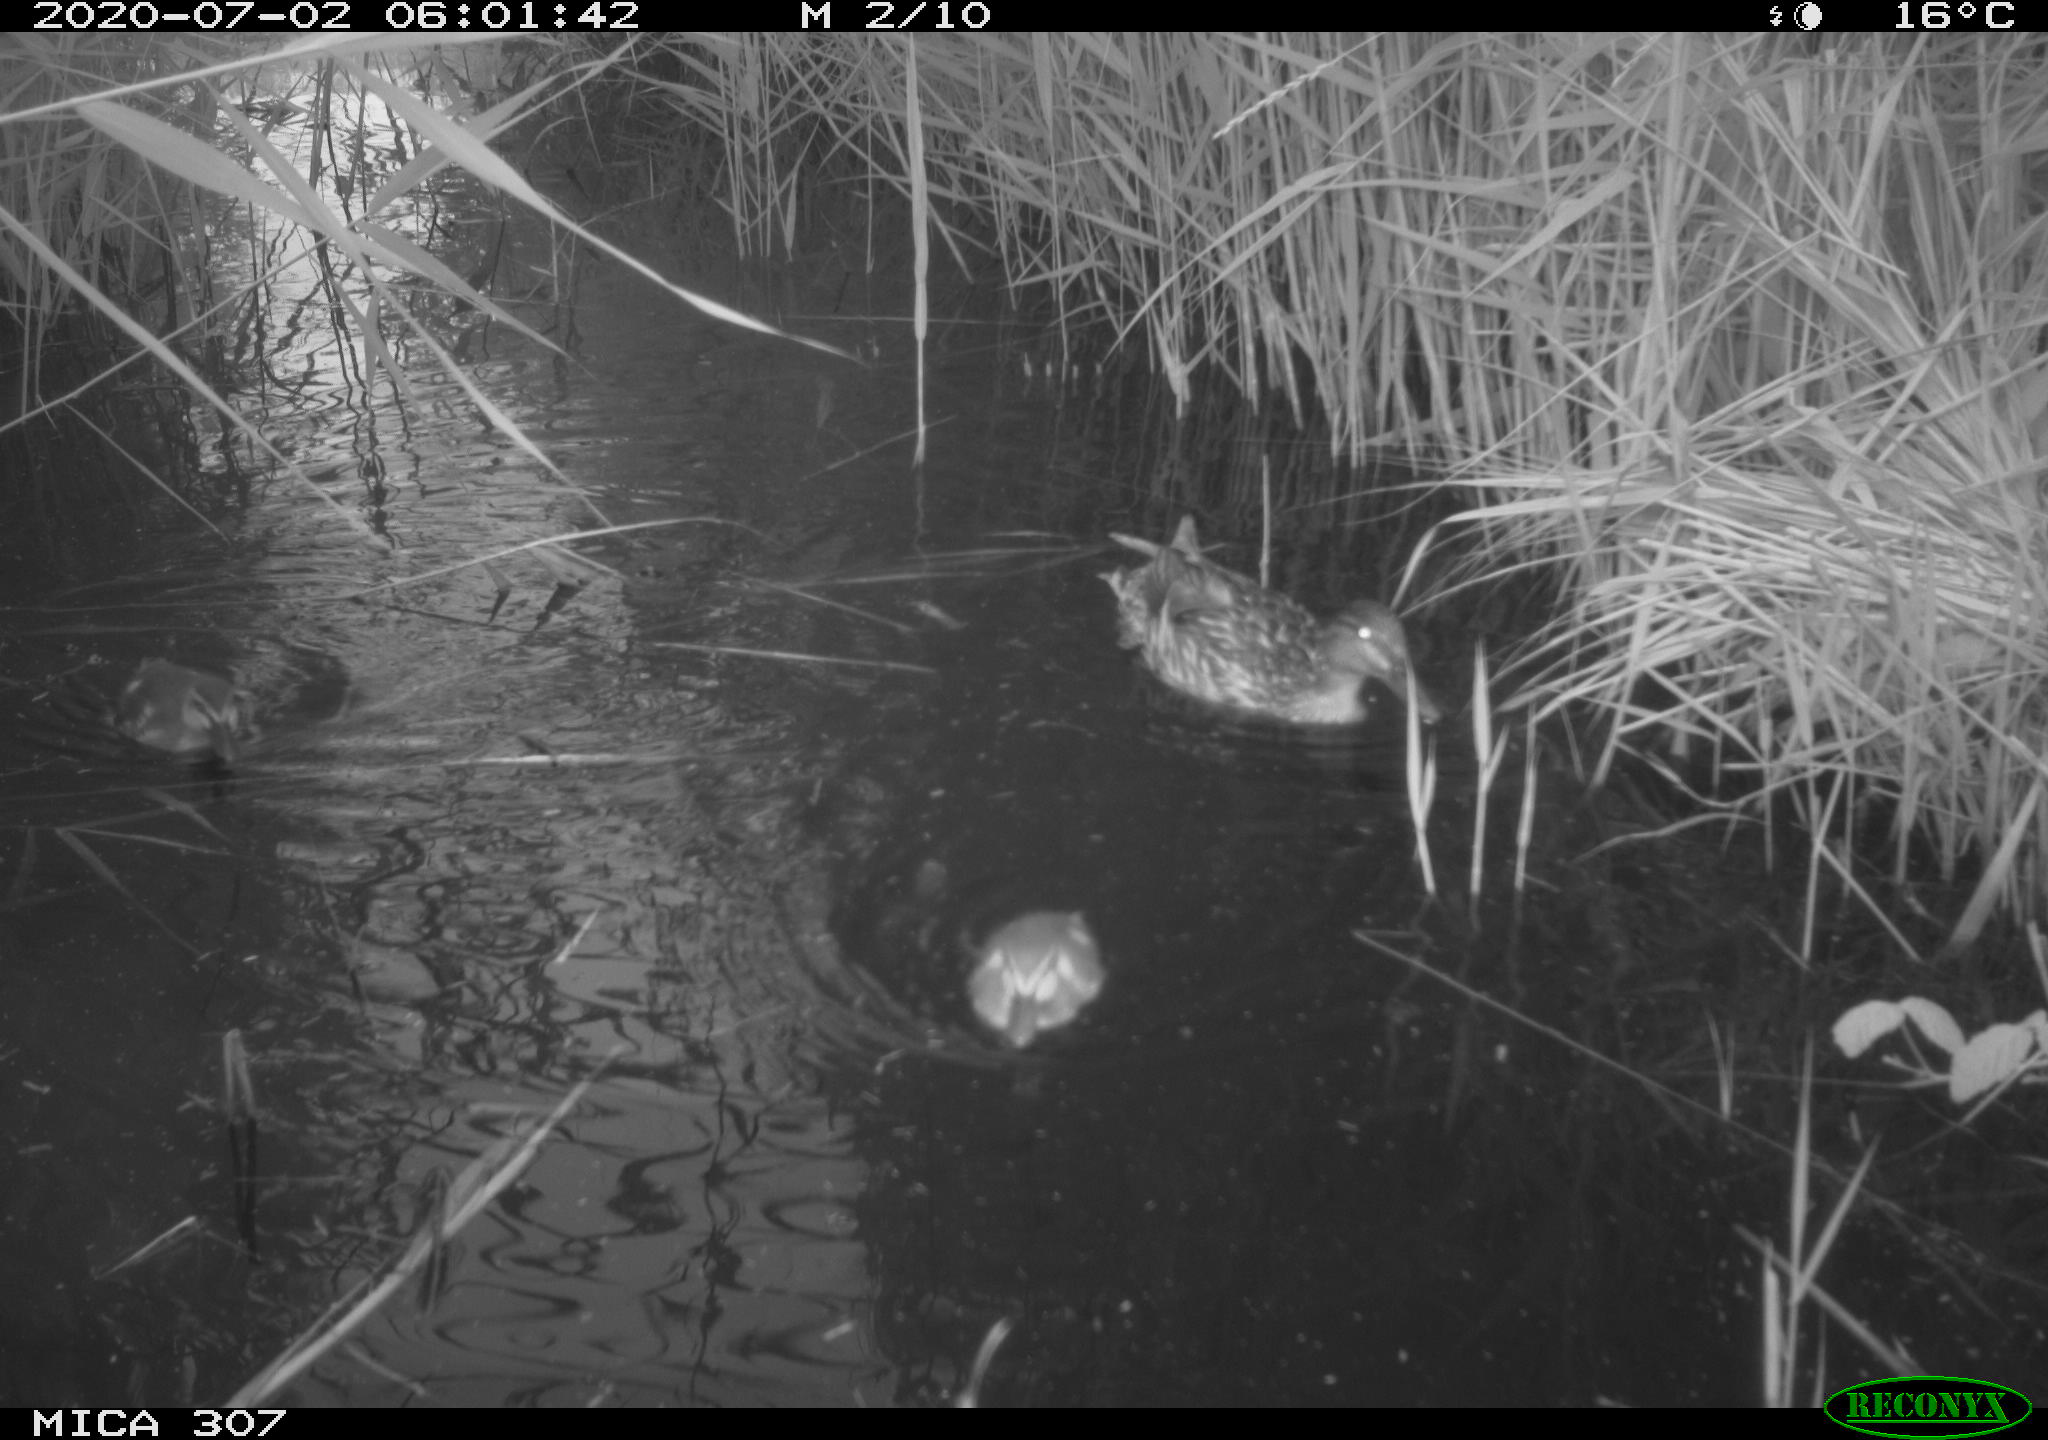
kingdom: Animalia
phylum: Chordata
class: Aves
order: Anseriformes
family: Anatidae
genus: Anas
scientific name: Anas platyrhynchos
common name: Mallard
